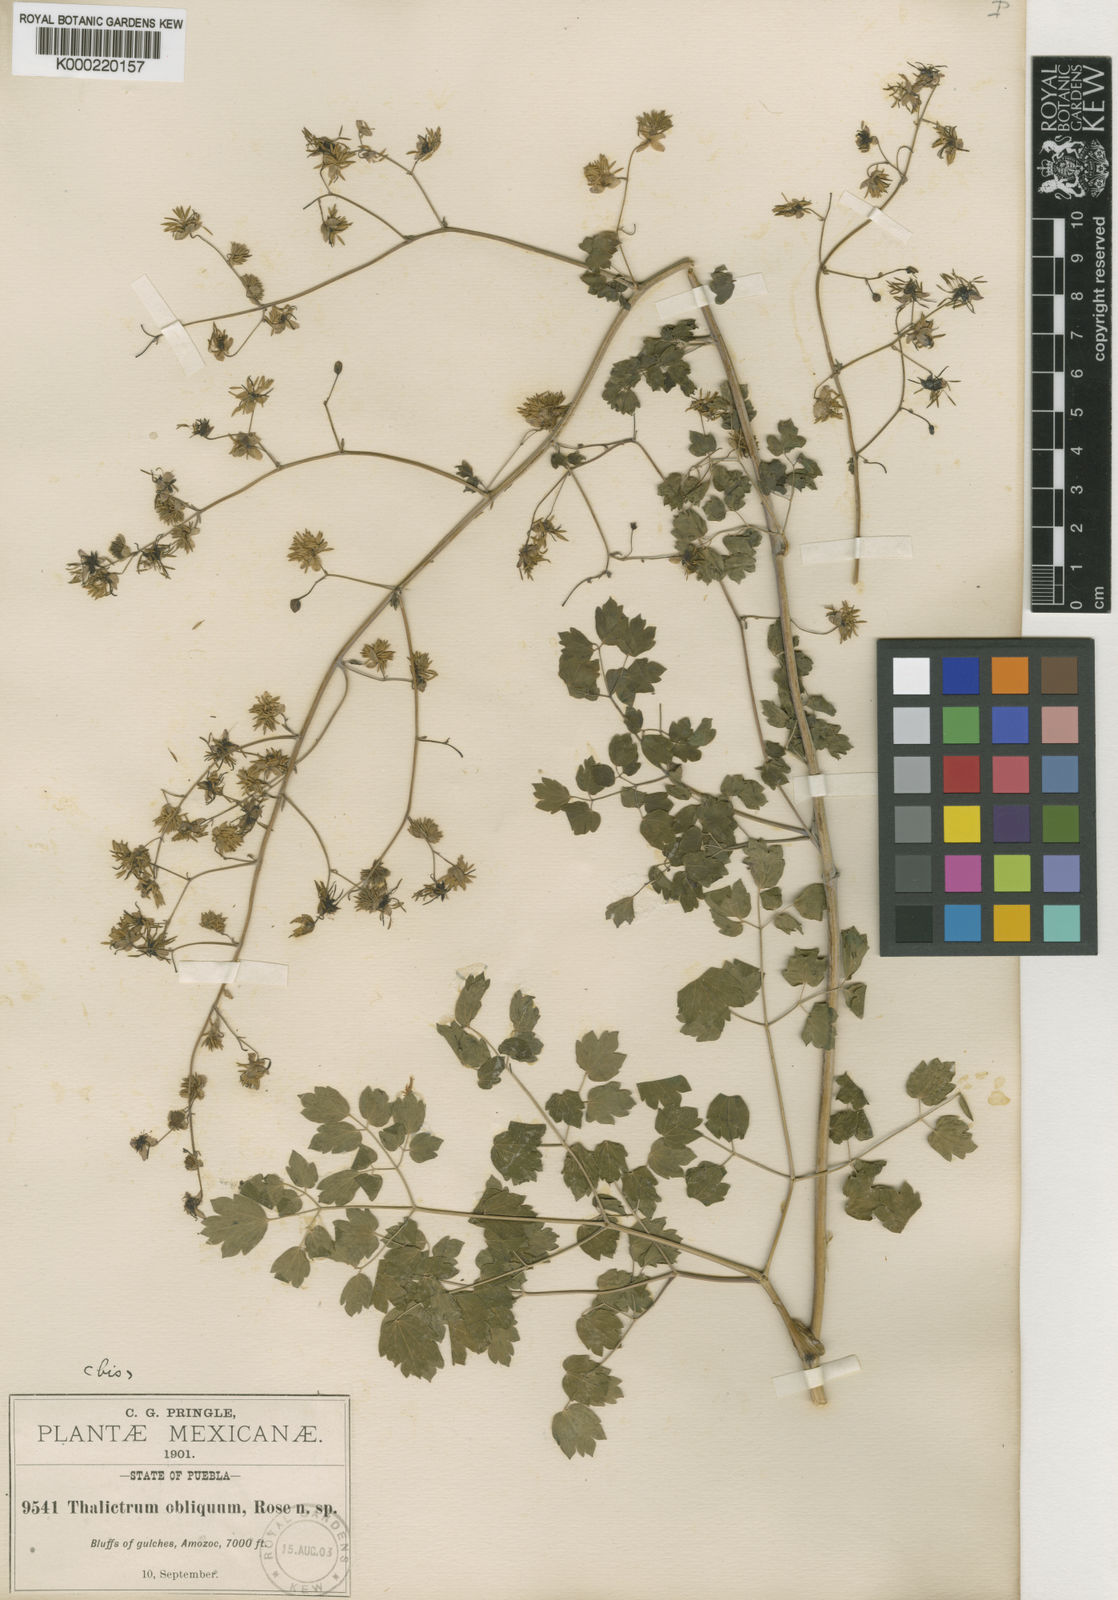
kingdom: Plantae
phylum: Tracheophyta
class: Magnoliopsida
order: Ranunculales
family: Ranunculaceae
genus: Thalictrum
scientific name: Thalictrum gibbosum
